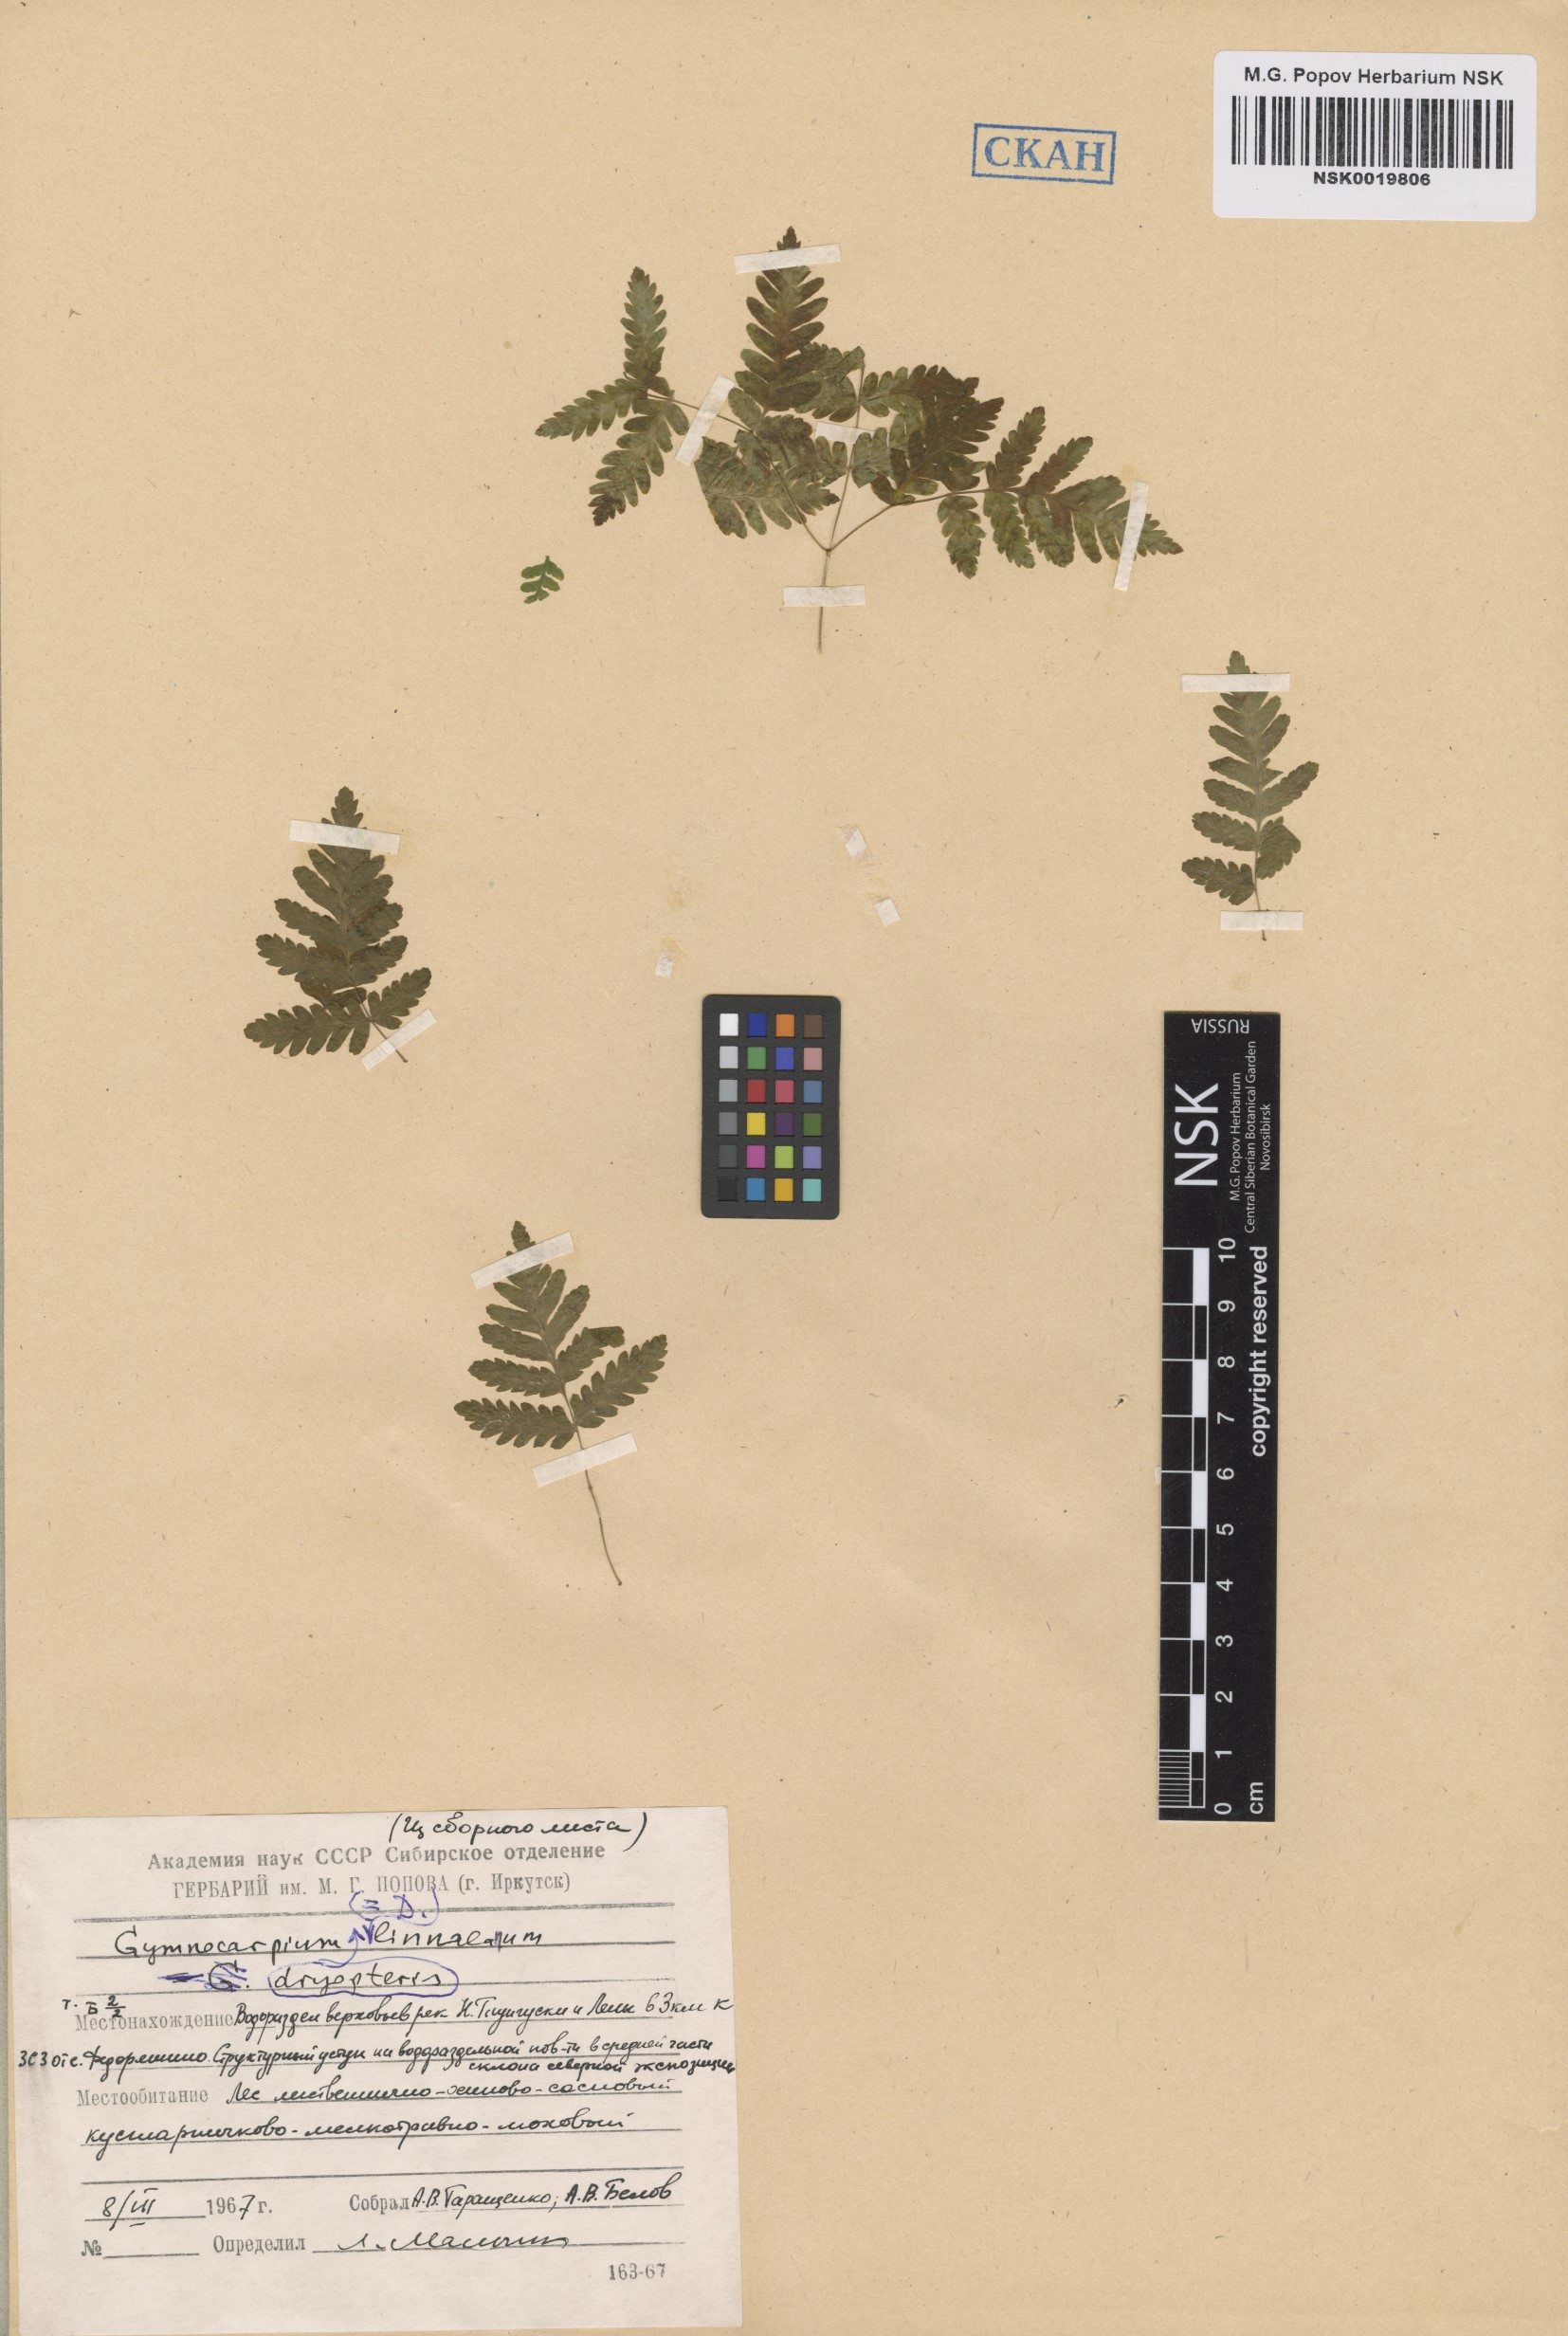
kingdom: Plantae
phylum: Tracheophyta
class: Polypodiopsida
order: Polypodiales
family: Cystopteridaceae
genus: Gymnocarpium
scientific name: Gymnocarpium dryopteris
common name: Oak fern
